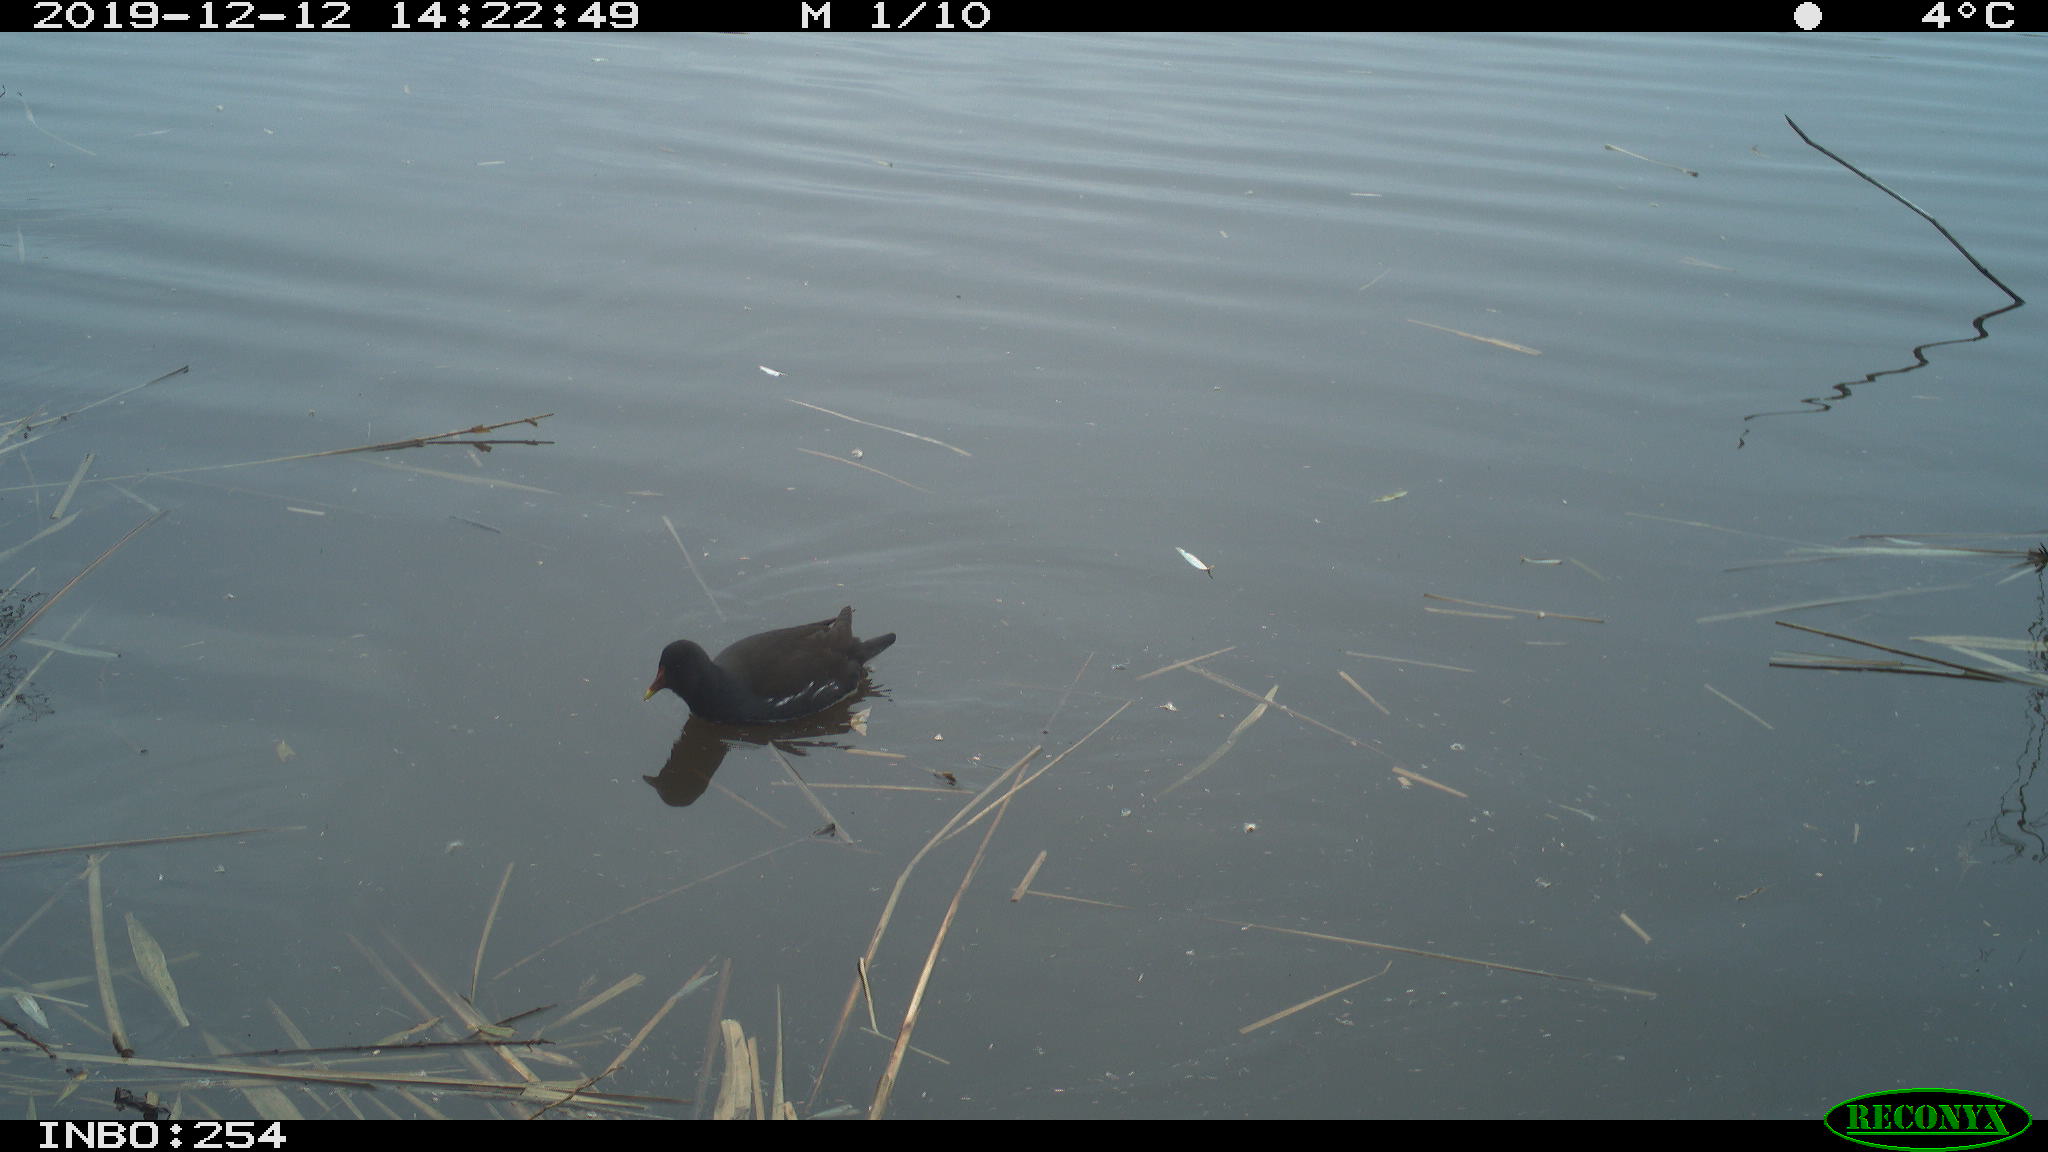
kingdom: Animalia
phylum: Chordata
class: Aves
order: Gruiformes
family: Rallidae
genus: Gallinula
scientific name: Gallinula chloropus
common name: Common moorhen
